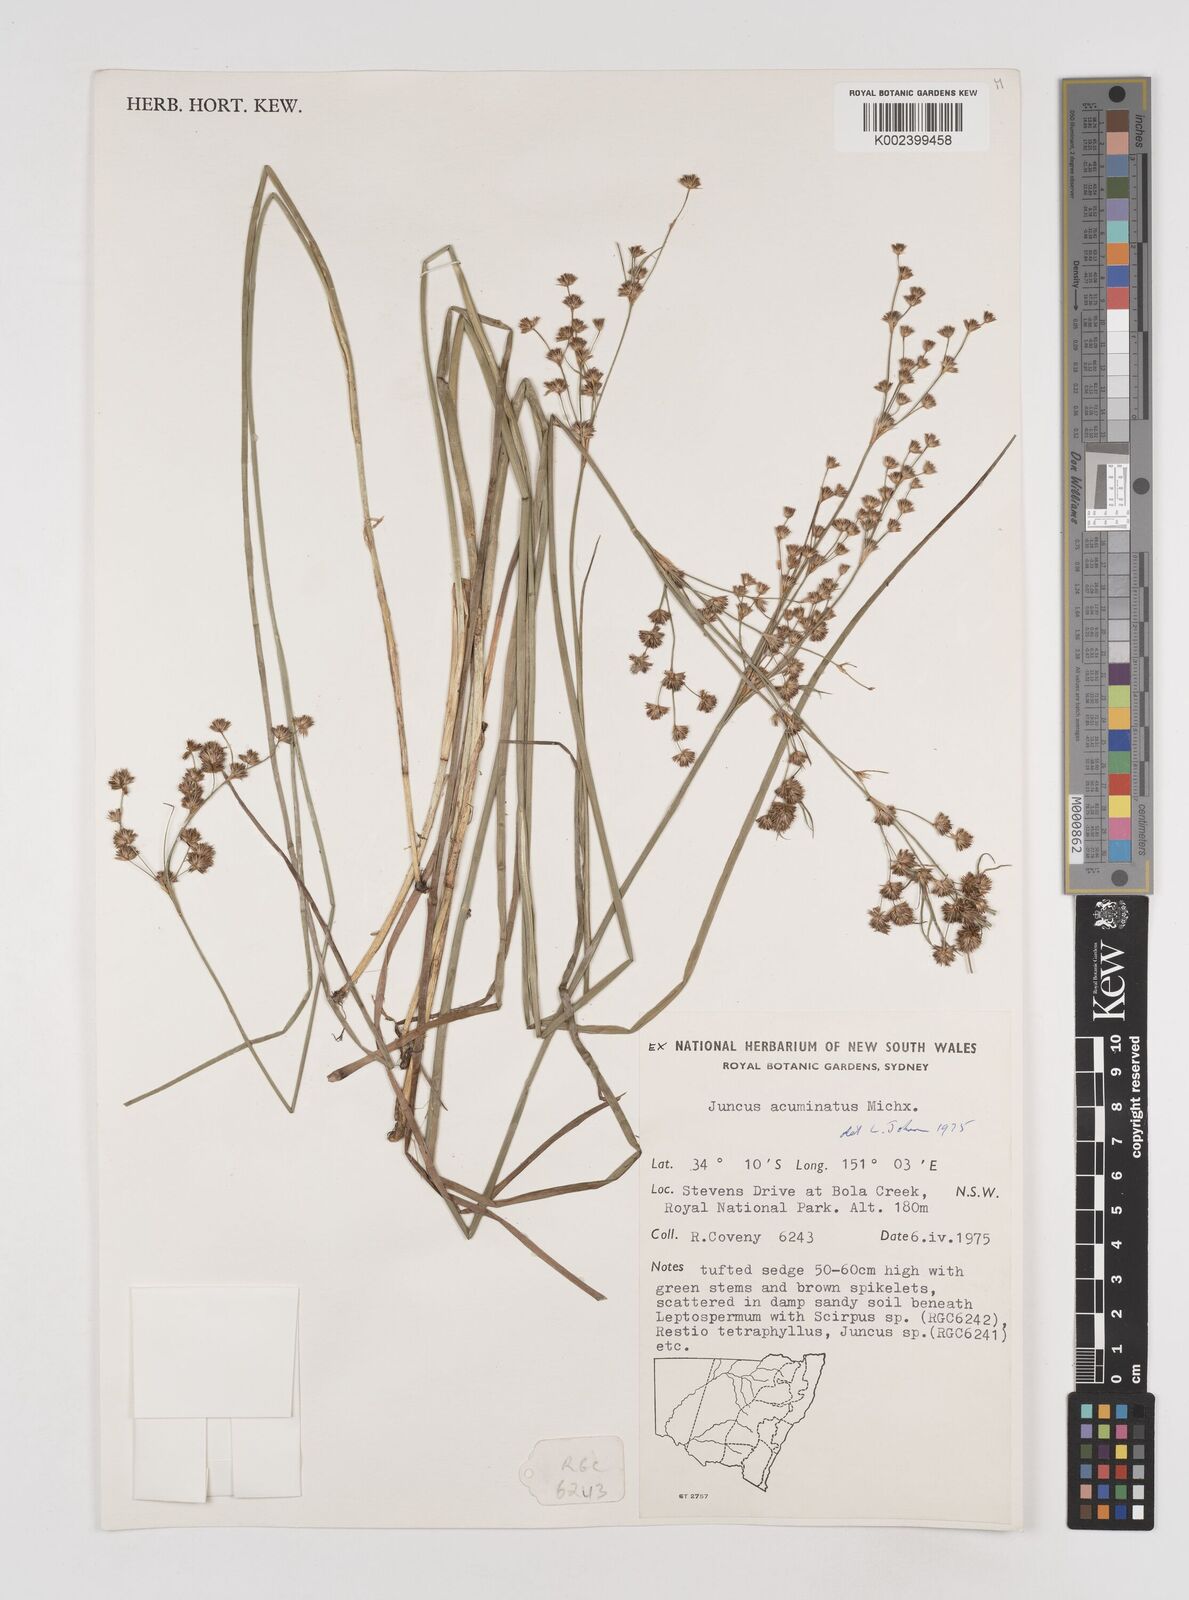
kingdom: Plantae
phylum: Tracheophyta
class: Liliopsida
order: Poales
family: Juncaceae
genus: Juncus
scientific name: Juncus arcticus
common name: Arctic rush
